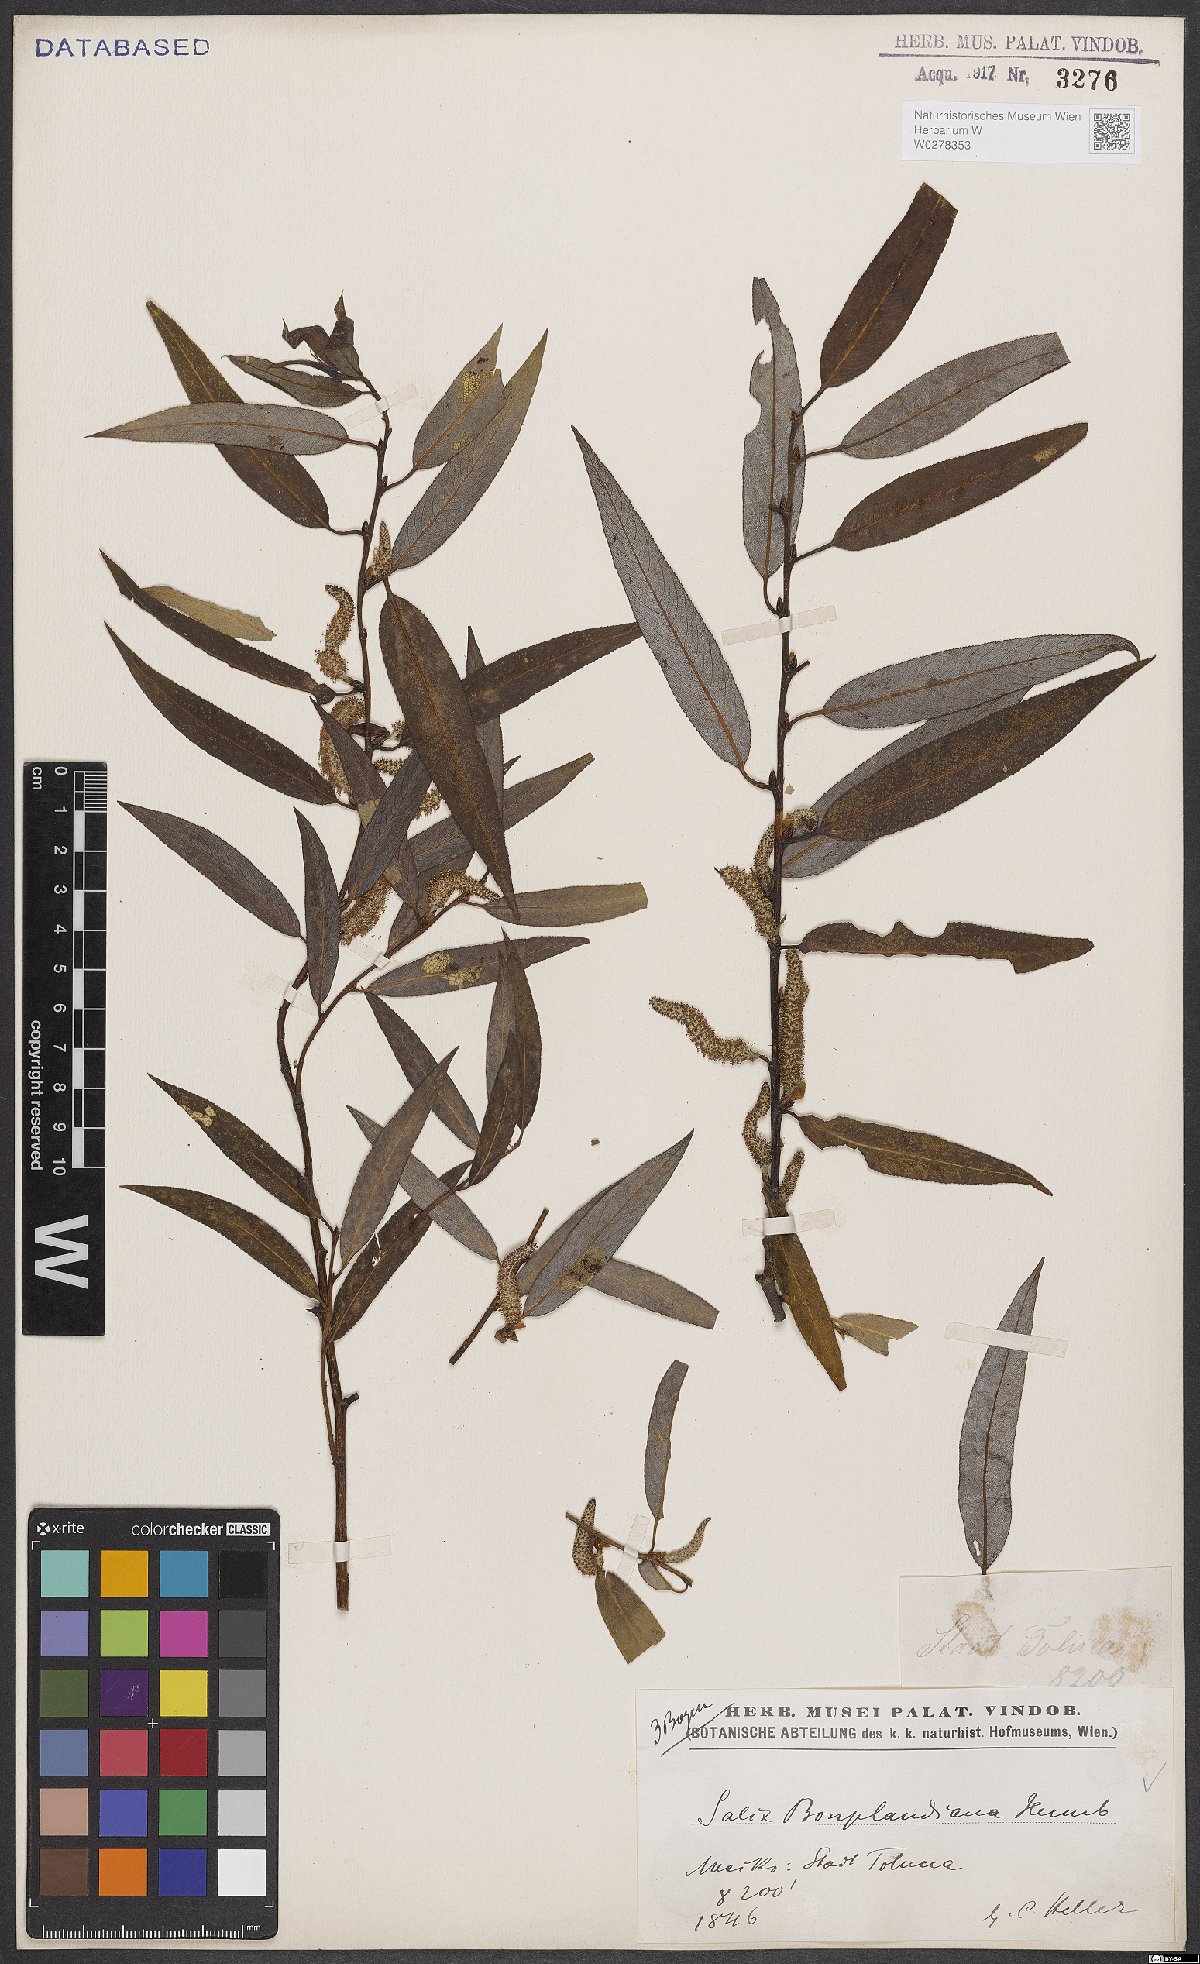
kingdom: Plantae
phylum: Tracheophyta
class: Magnoliopsida
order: Malpighiales
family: Salicaceae
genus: Salix
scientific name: Salix bonplandiana
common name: Bonpland’s willow
